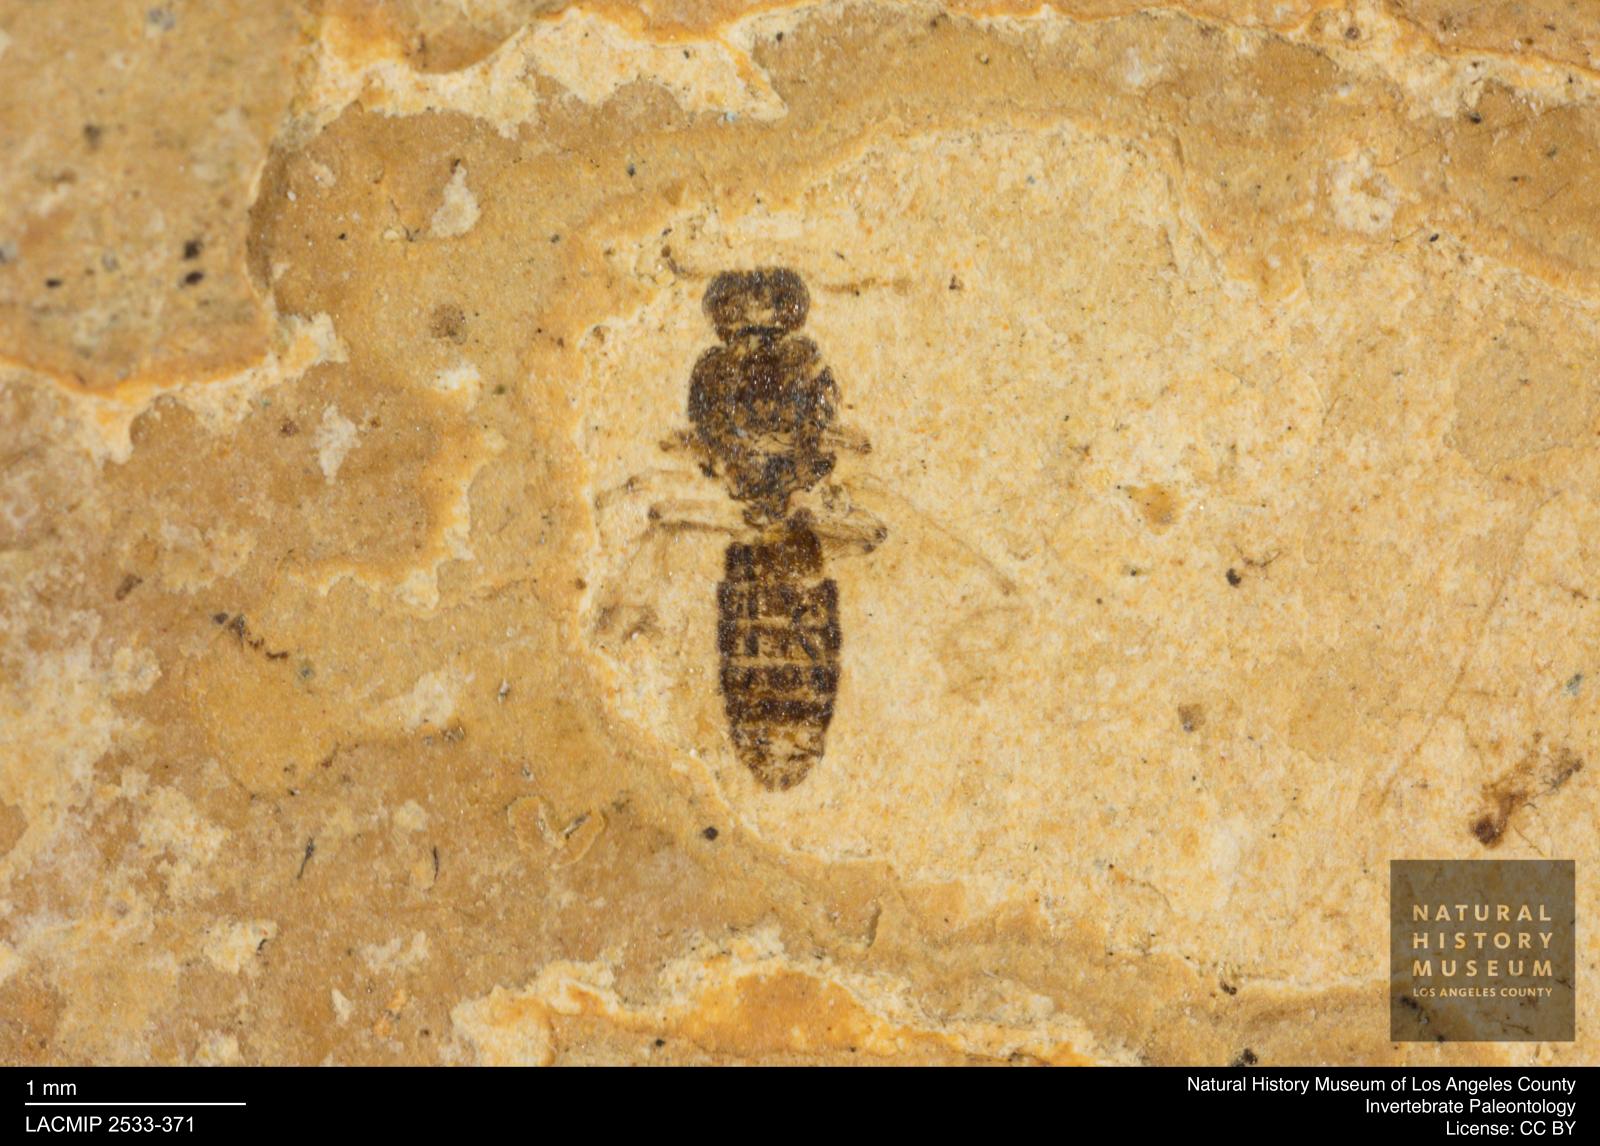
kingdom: Animalia
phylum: Arthropoda
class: Insecta
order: Diptera
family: Ceratopogonidae
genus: Culicoides
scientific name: Culicoides elongatulus
